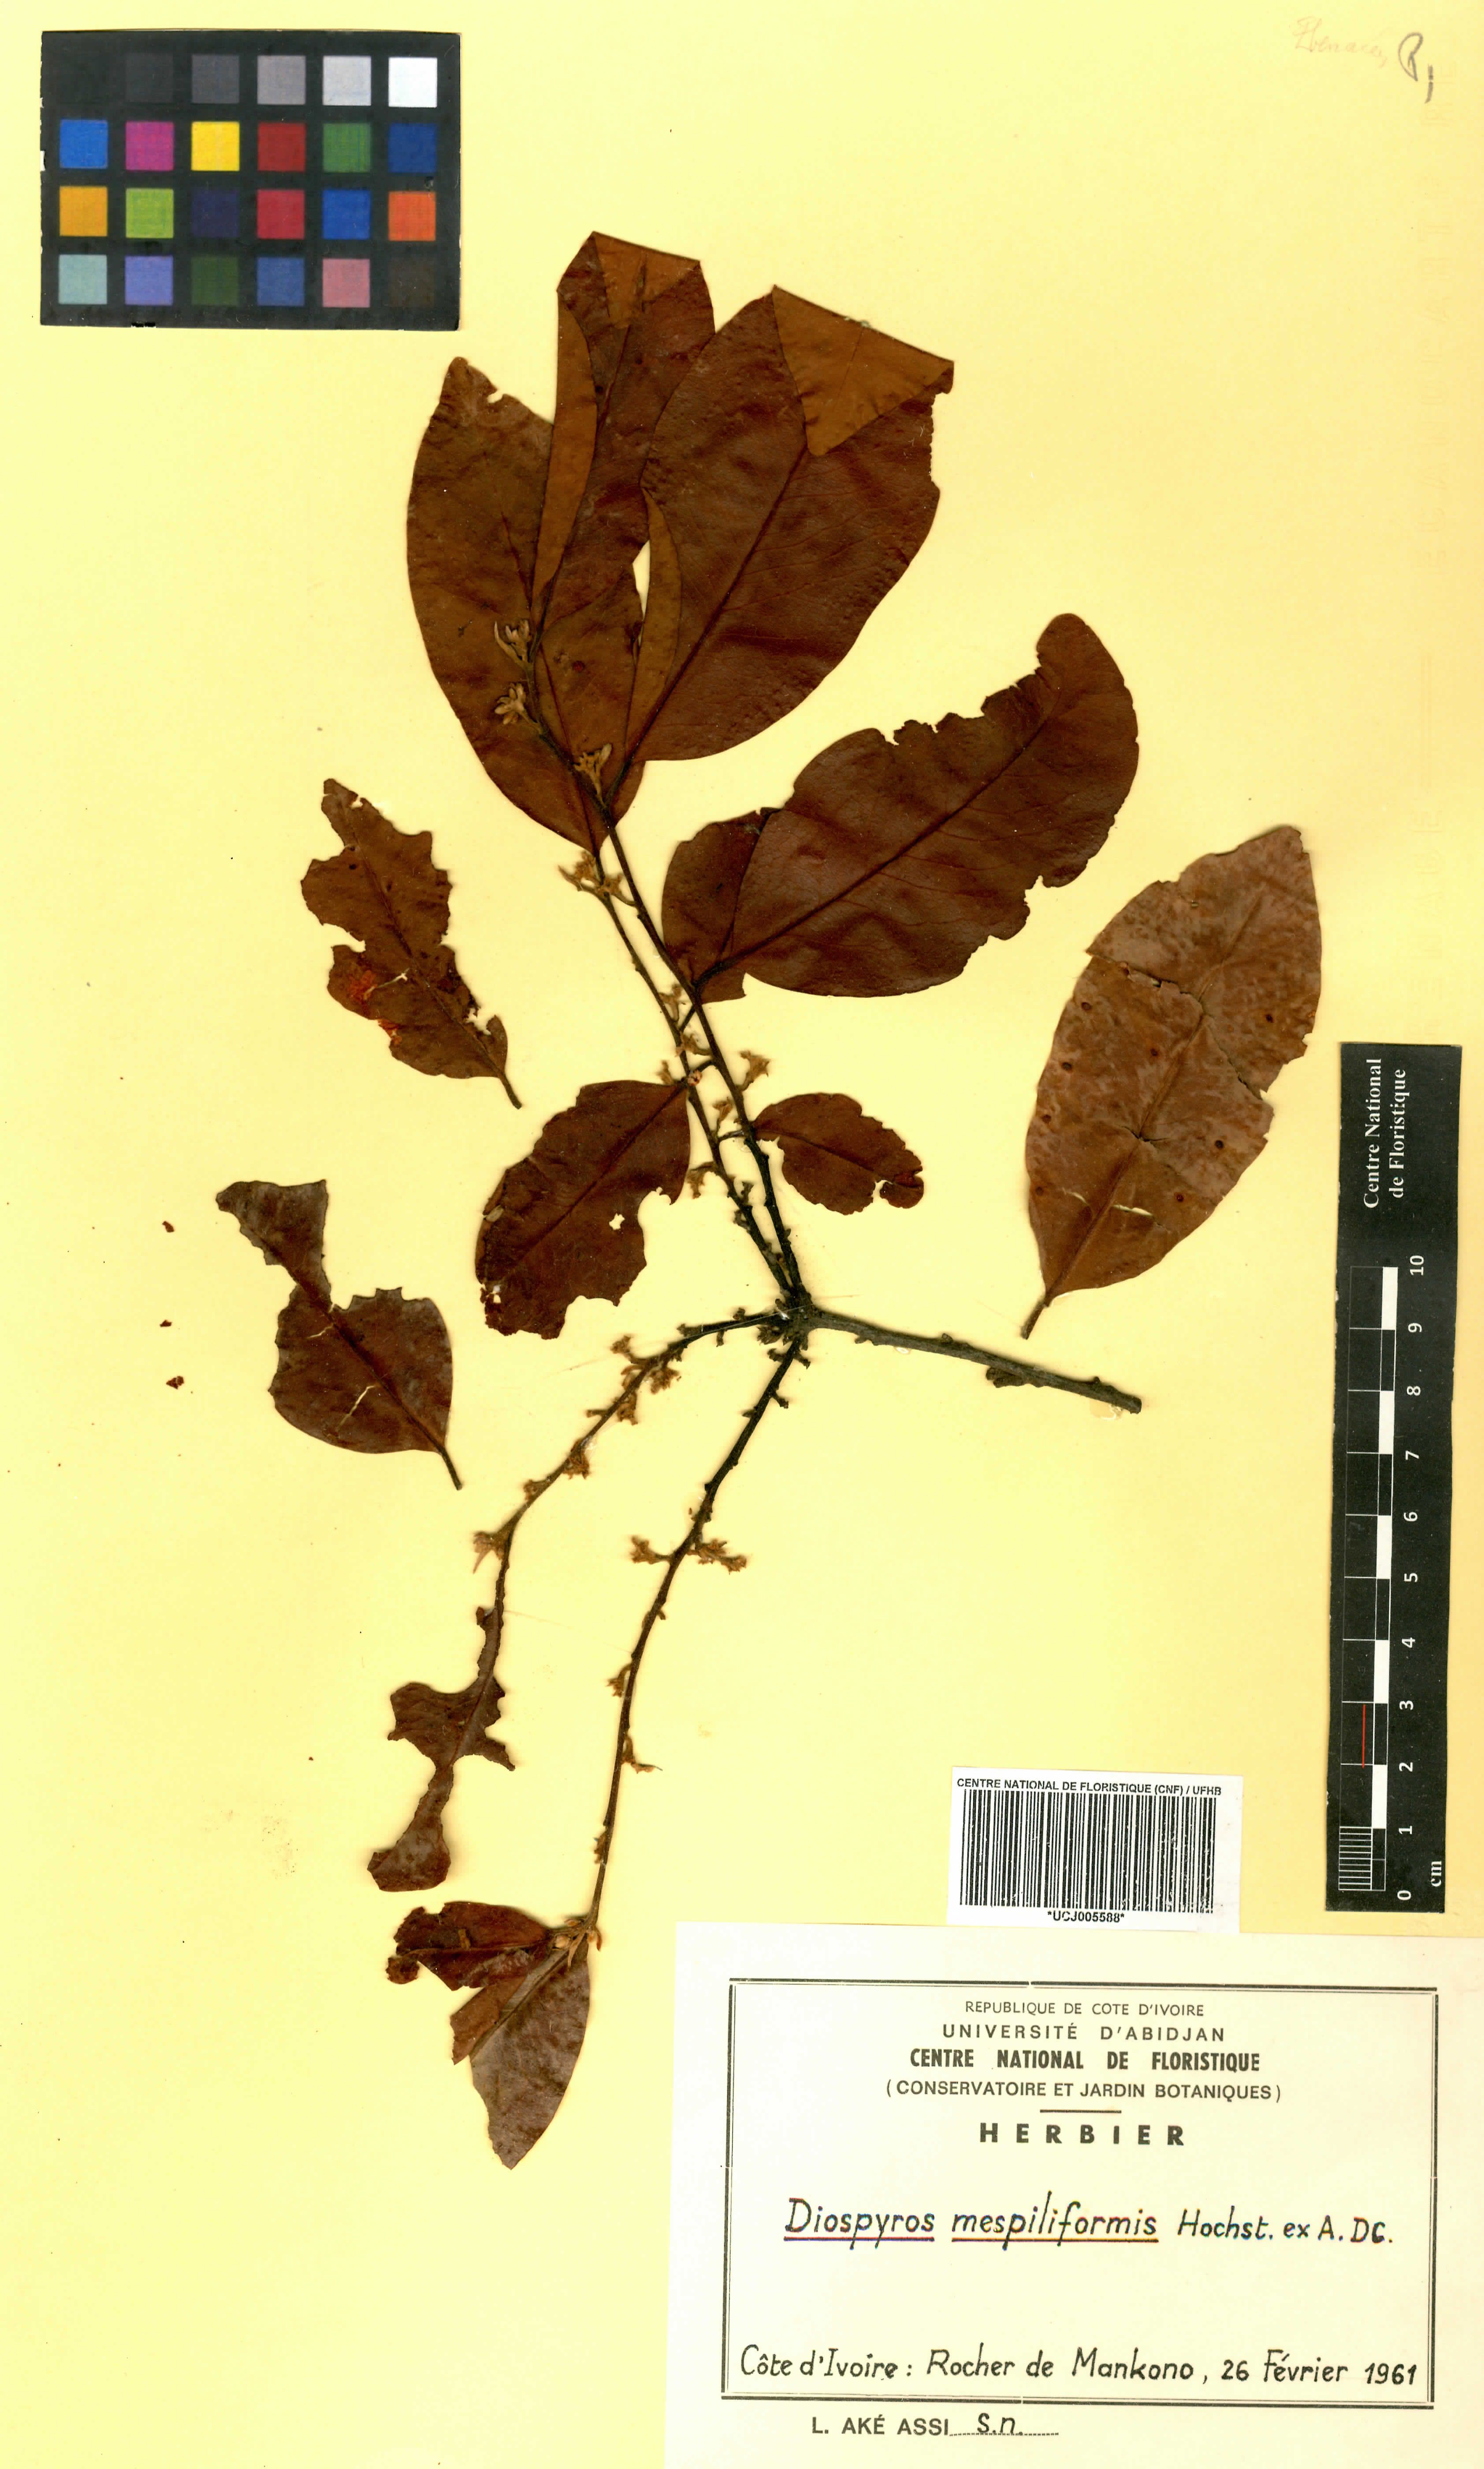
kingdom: Plantae
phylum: Tracheophyta
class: Magnoliopsida
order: Ericales
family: Ebenaceae
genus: Diospyros
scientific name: Diospyros mespiliformis
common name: Ebony diospyros
